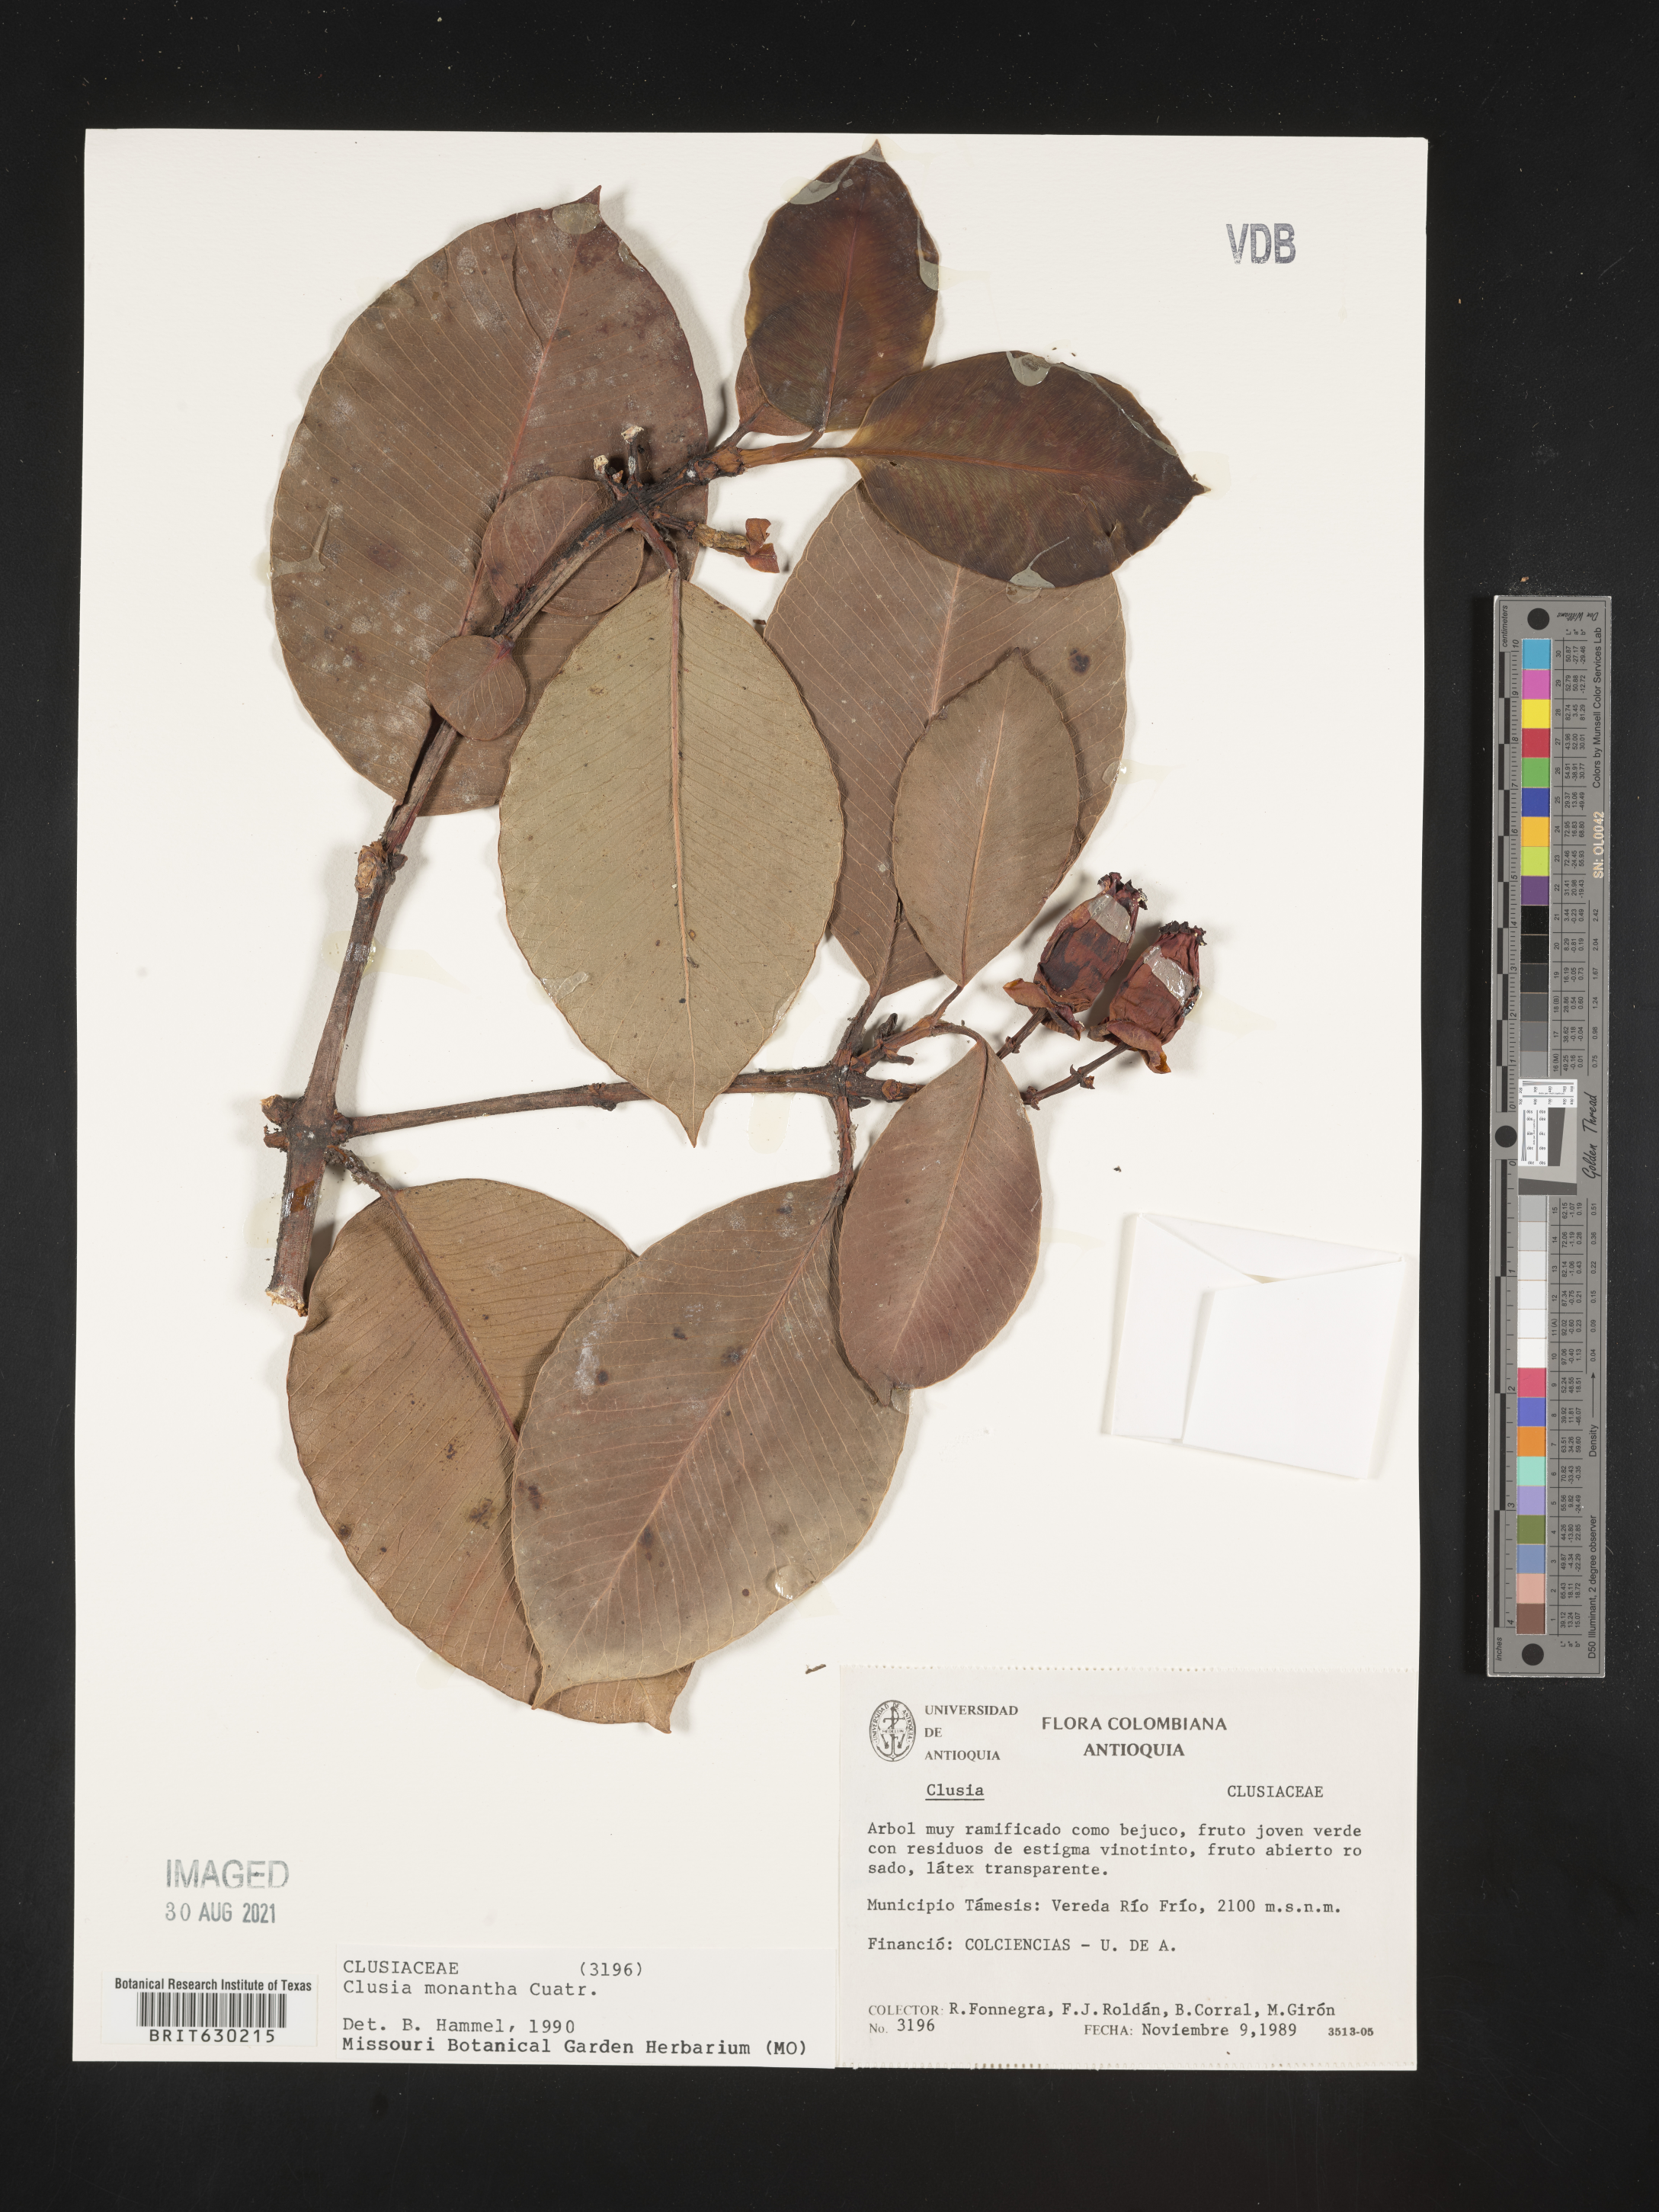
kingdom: Plantae
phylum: Tracheophyta
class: Magnoliopsida
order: Malpighiales
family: Clusiaceae
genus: Clusia
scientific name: Clusia monantha
